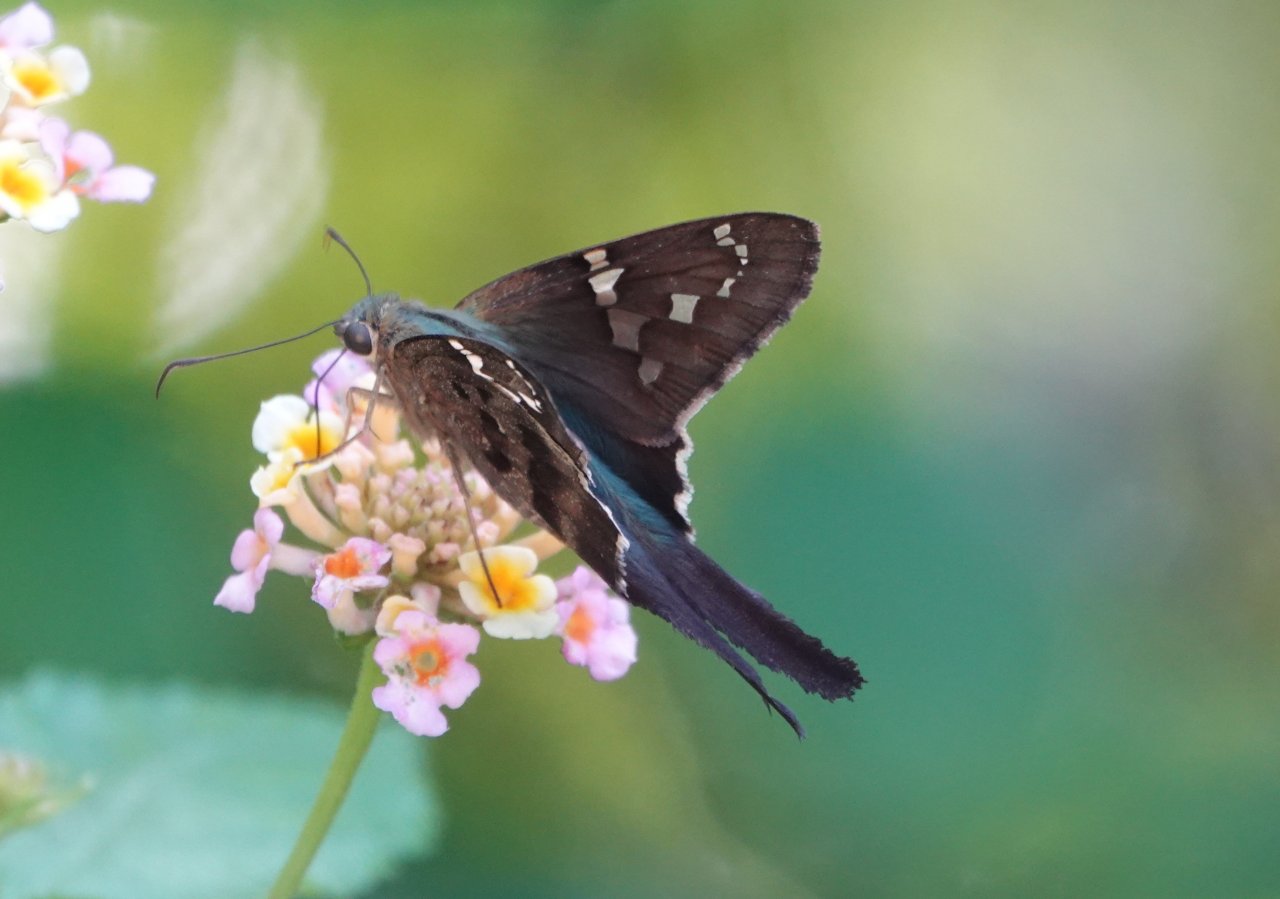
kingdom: Animalia
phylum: Arthropoda
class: Insecta
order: Lepidoptera
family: Hesperiidae
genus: Urbanus
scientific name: Urbanus proteus
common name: Long-tailed Skipper
